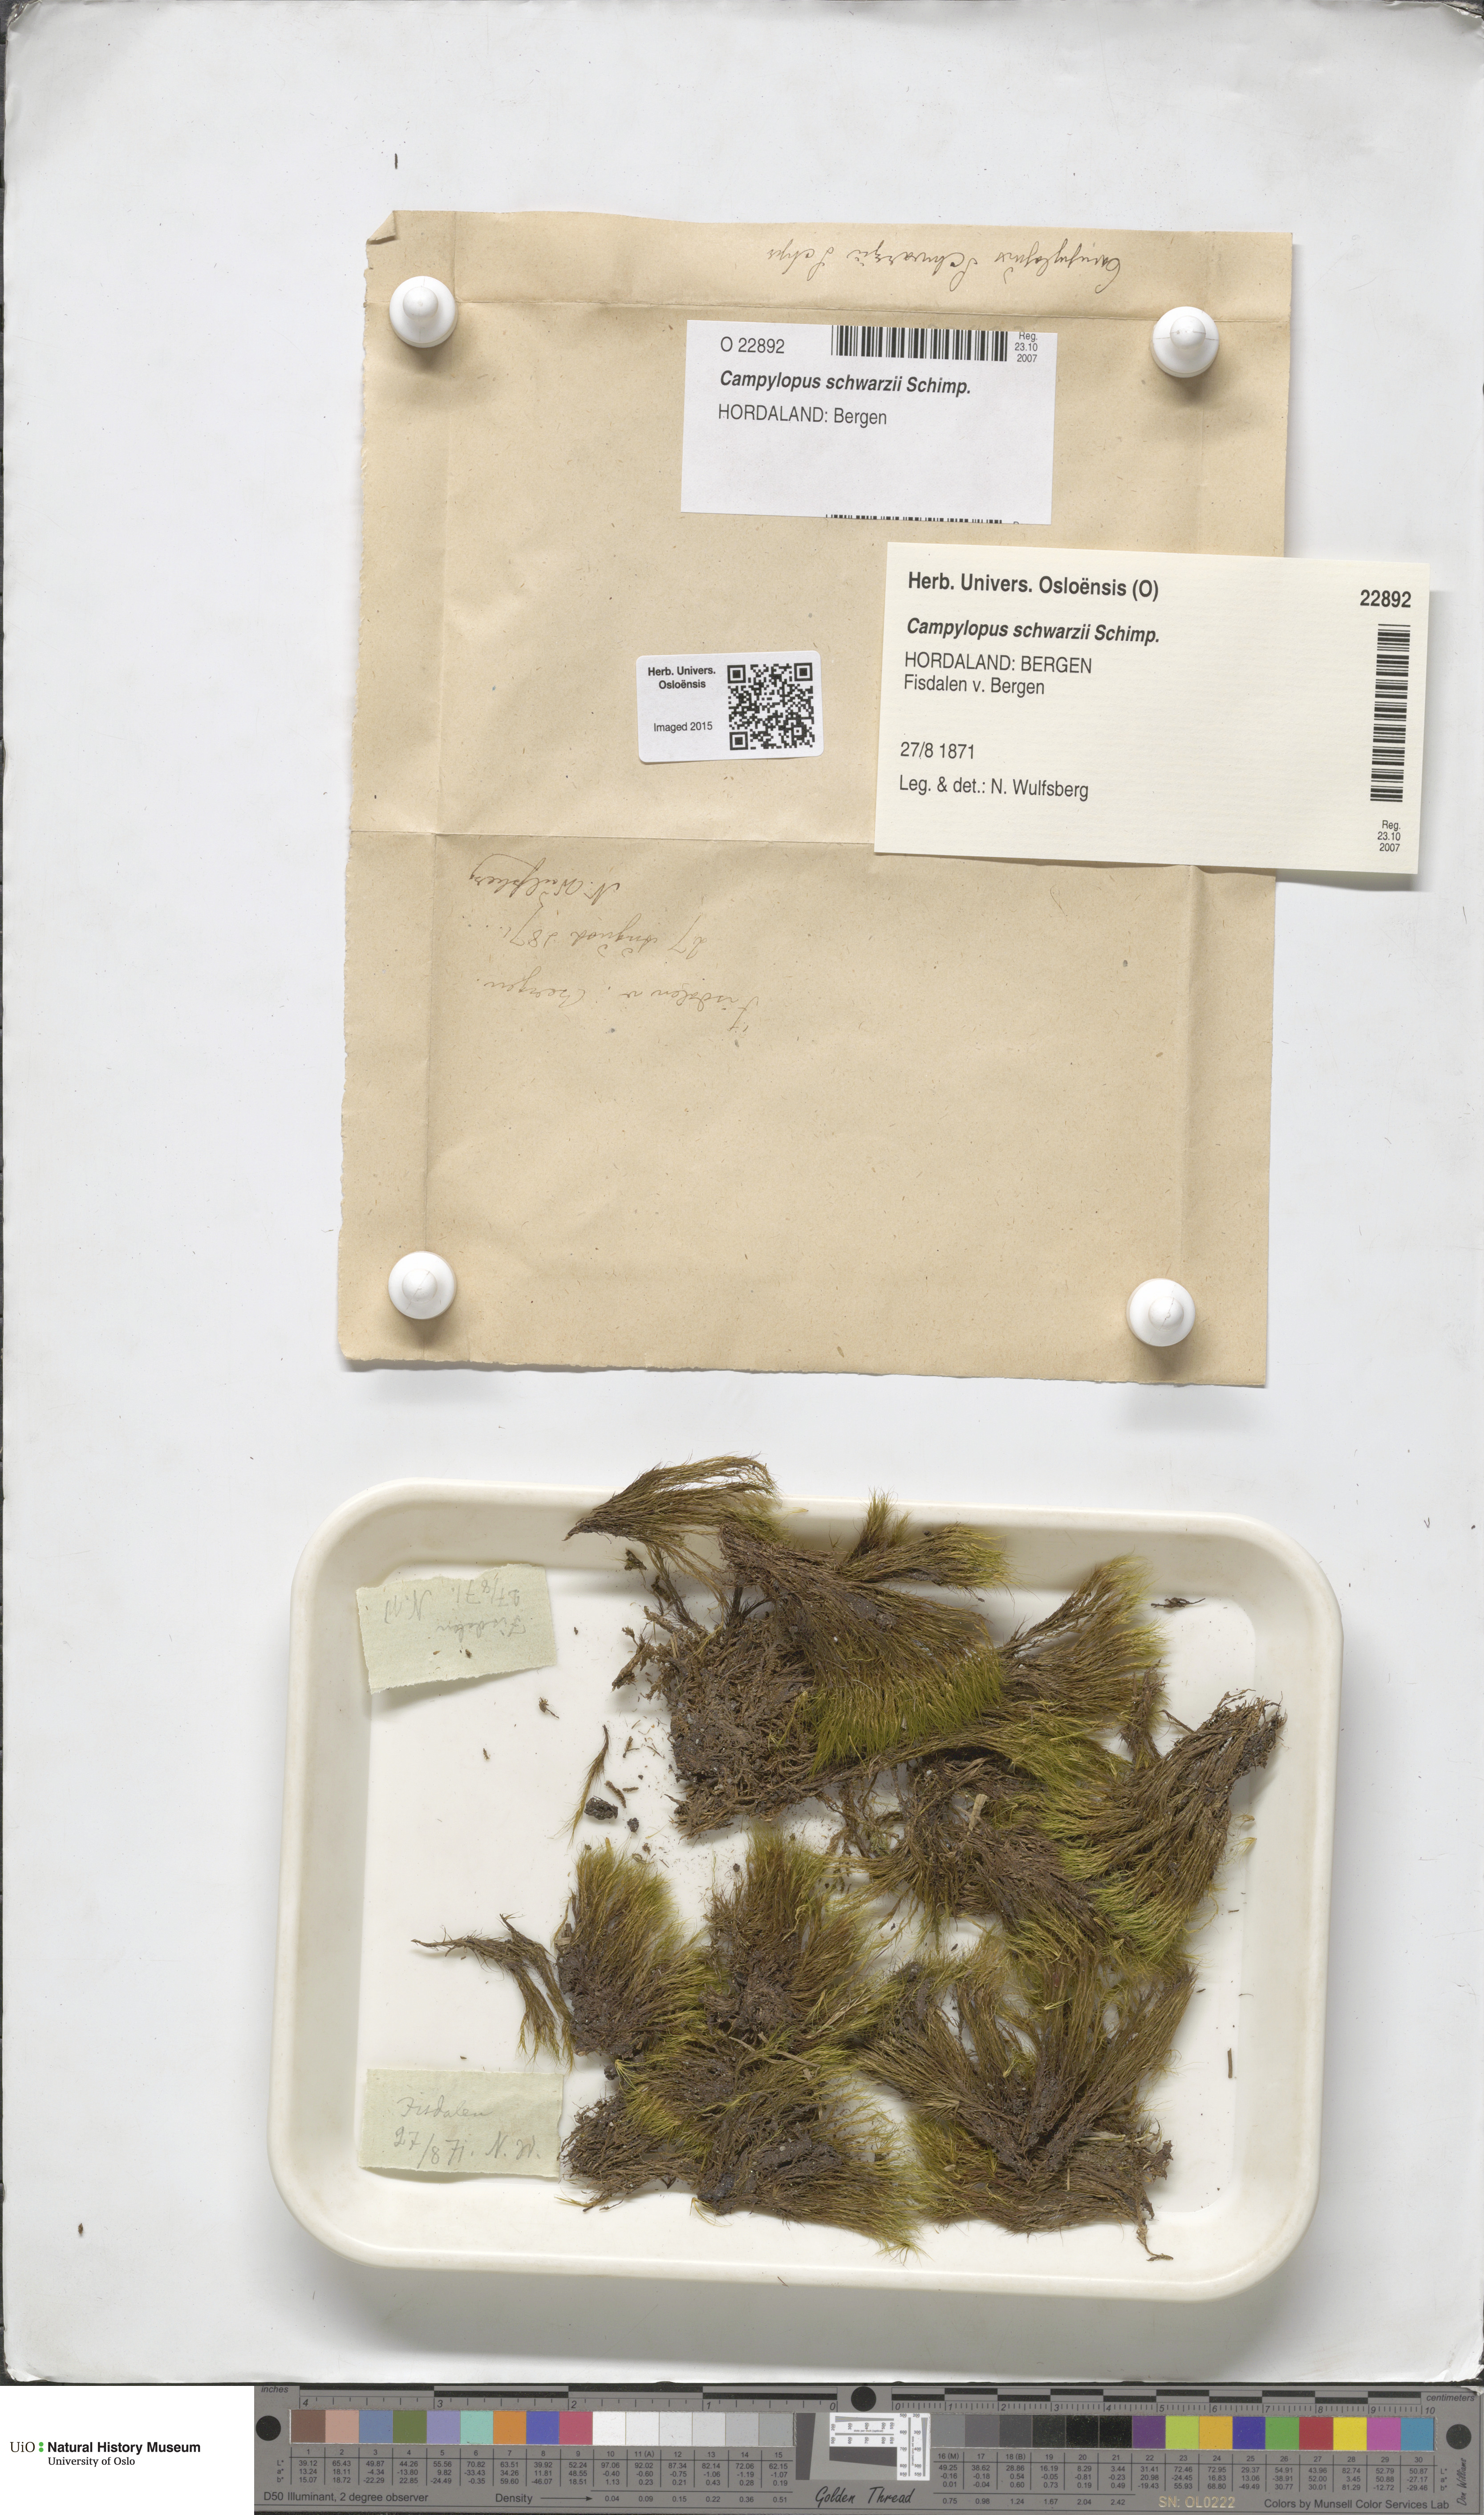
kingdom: Plantae
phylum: Bryophyta
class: Bryopsida
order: Dicranales
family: Leucobryaceae
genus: Campylopus
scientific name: Campylopus gracilis
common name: Schwarz's swan-neck moss
